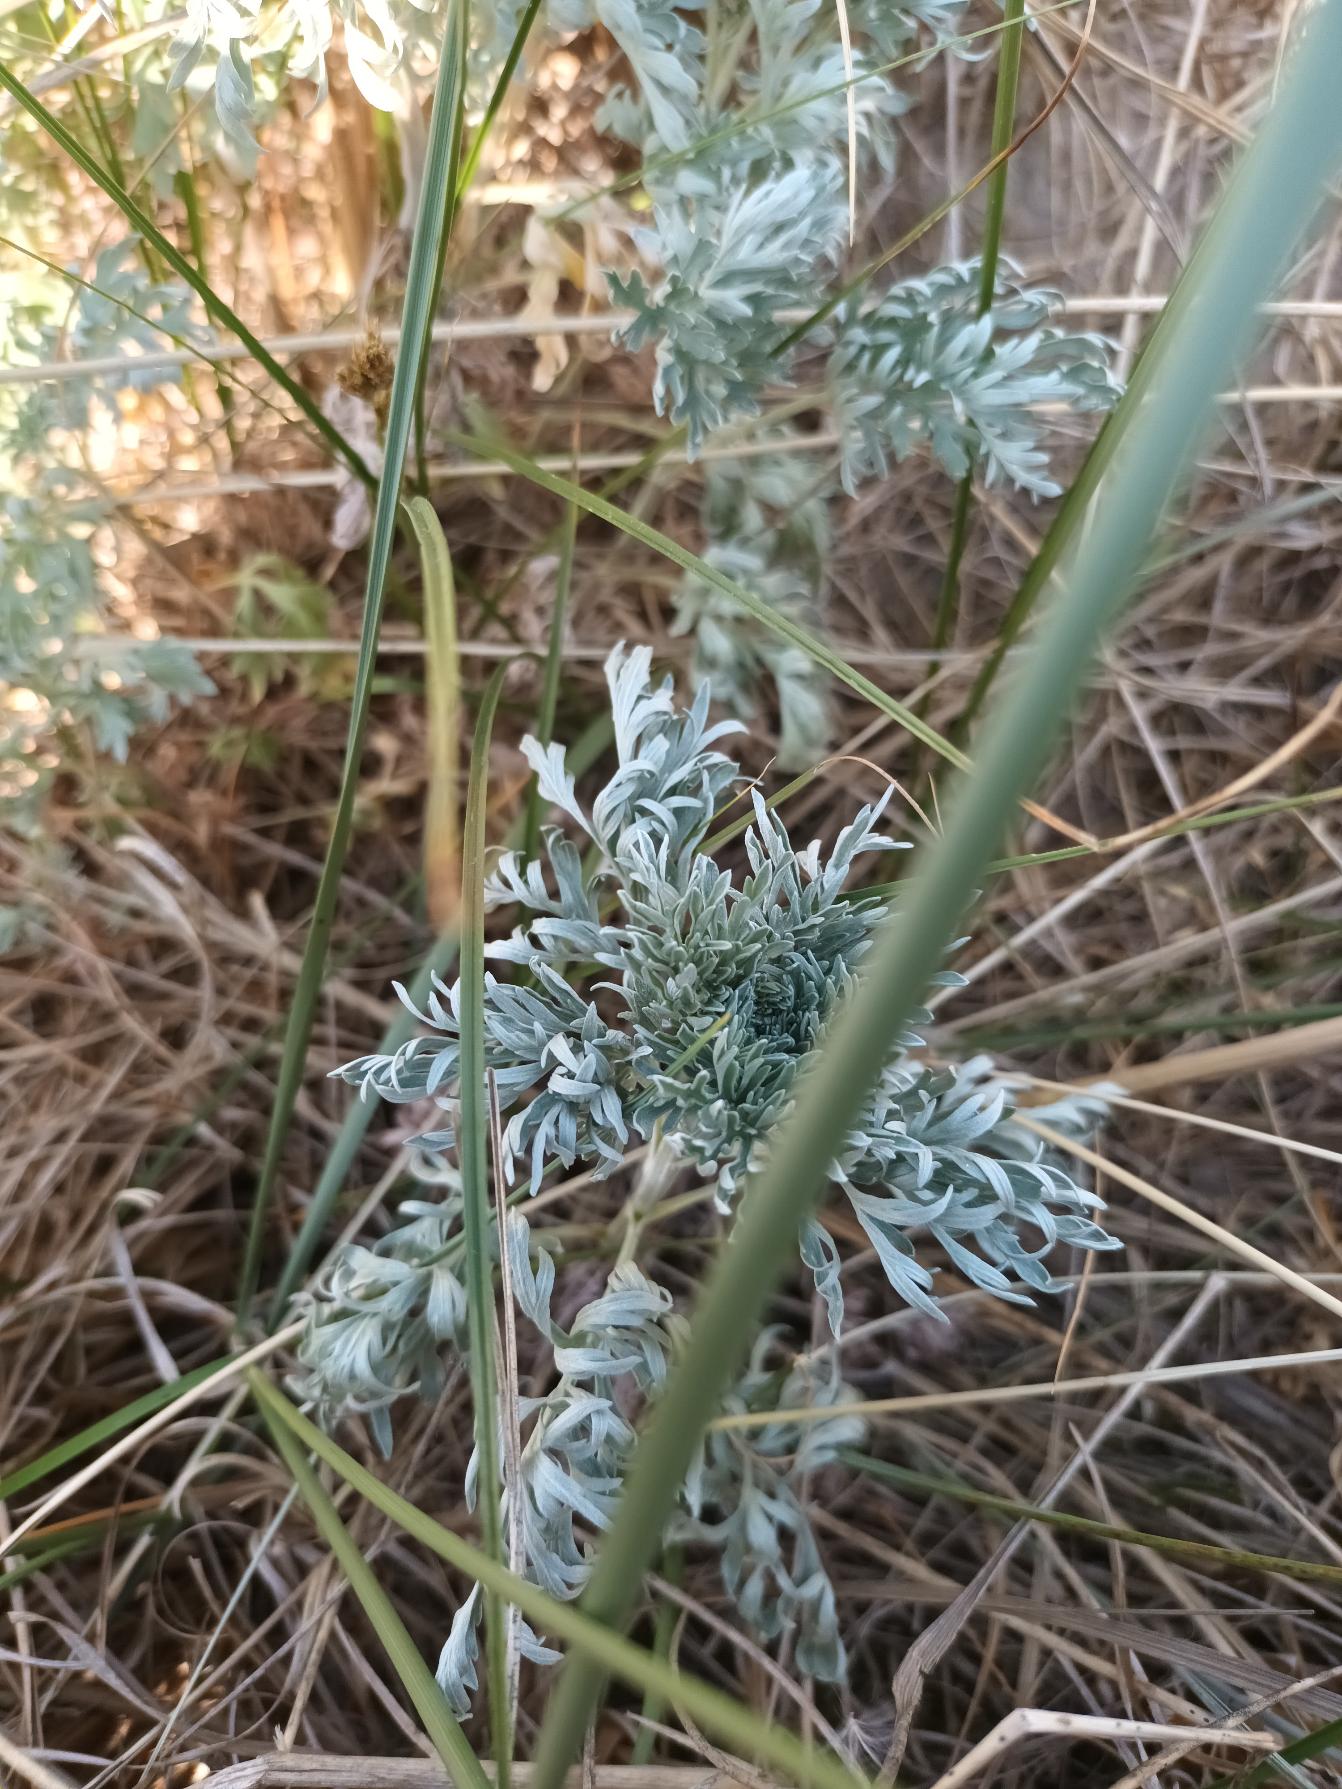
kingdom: Plantae
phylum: Tracheophyta
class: Magnoliopsida
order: Asterales
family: Asteraceae
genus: Artemisia
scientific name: Artemisia absinthium
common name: Havemalurt
